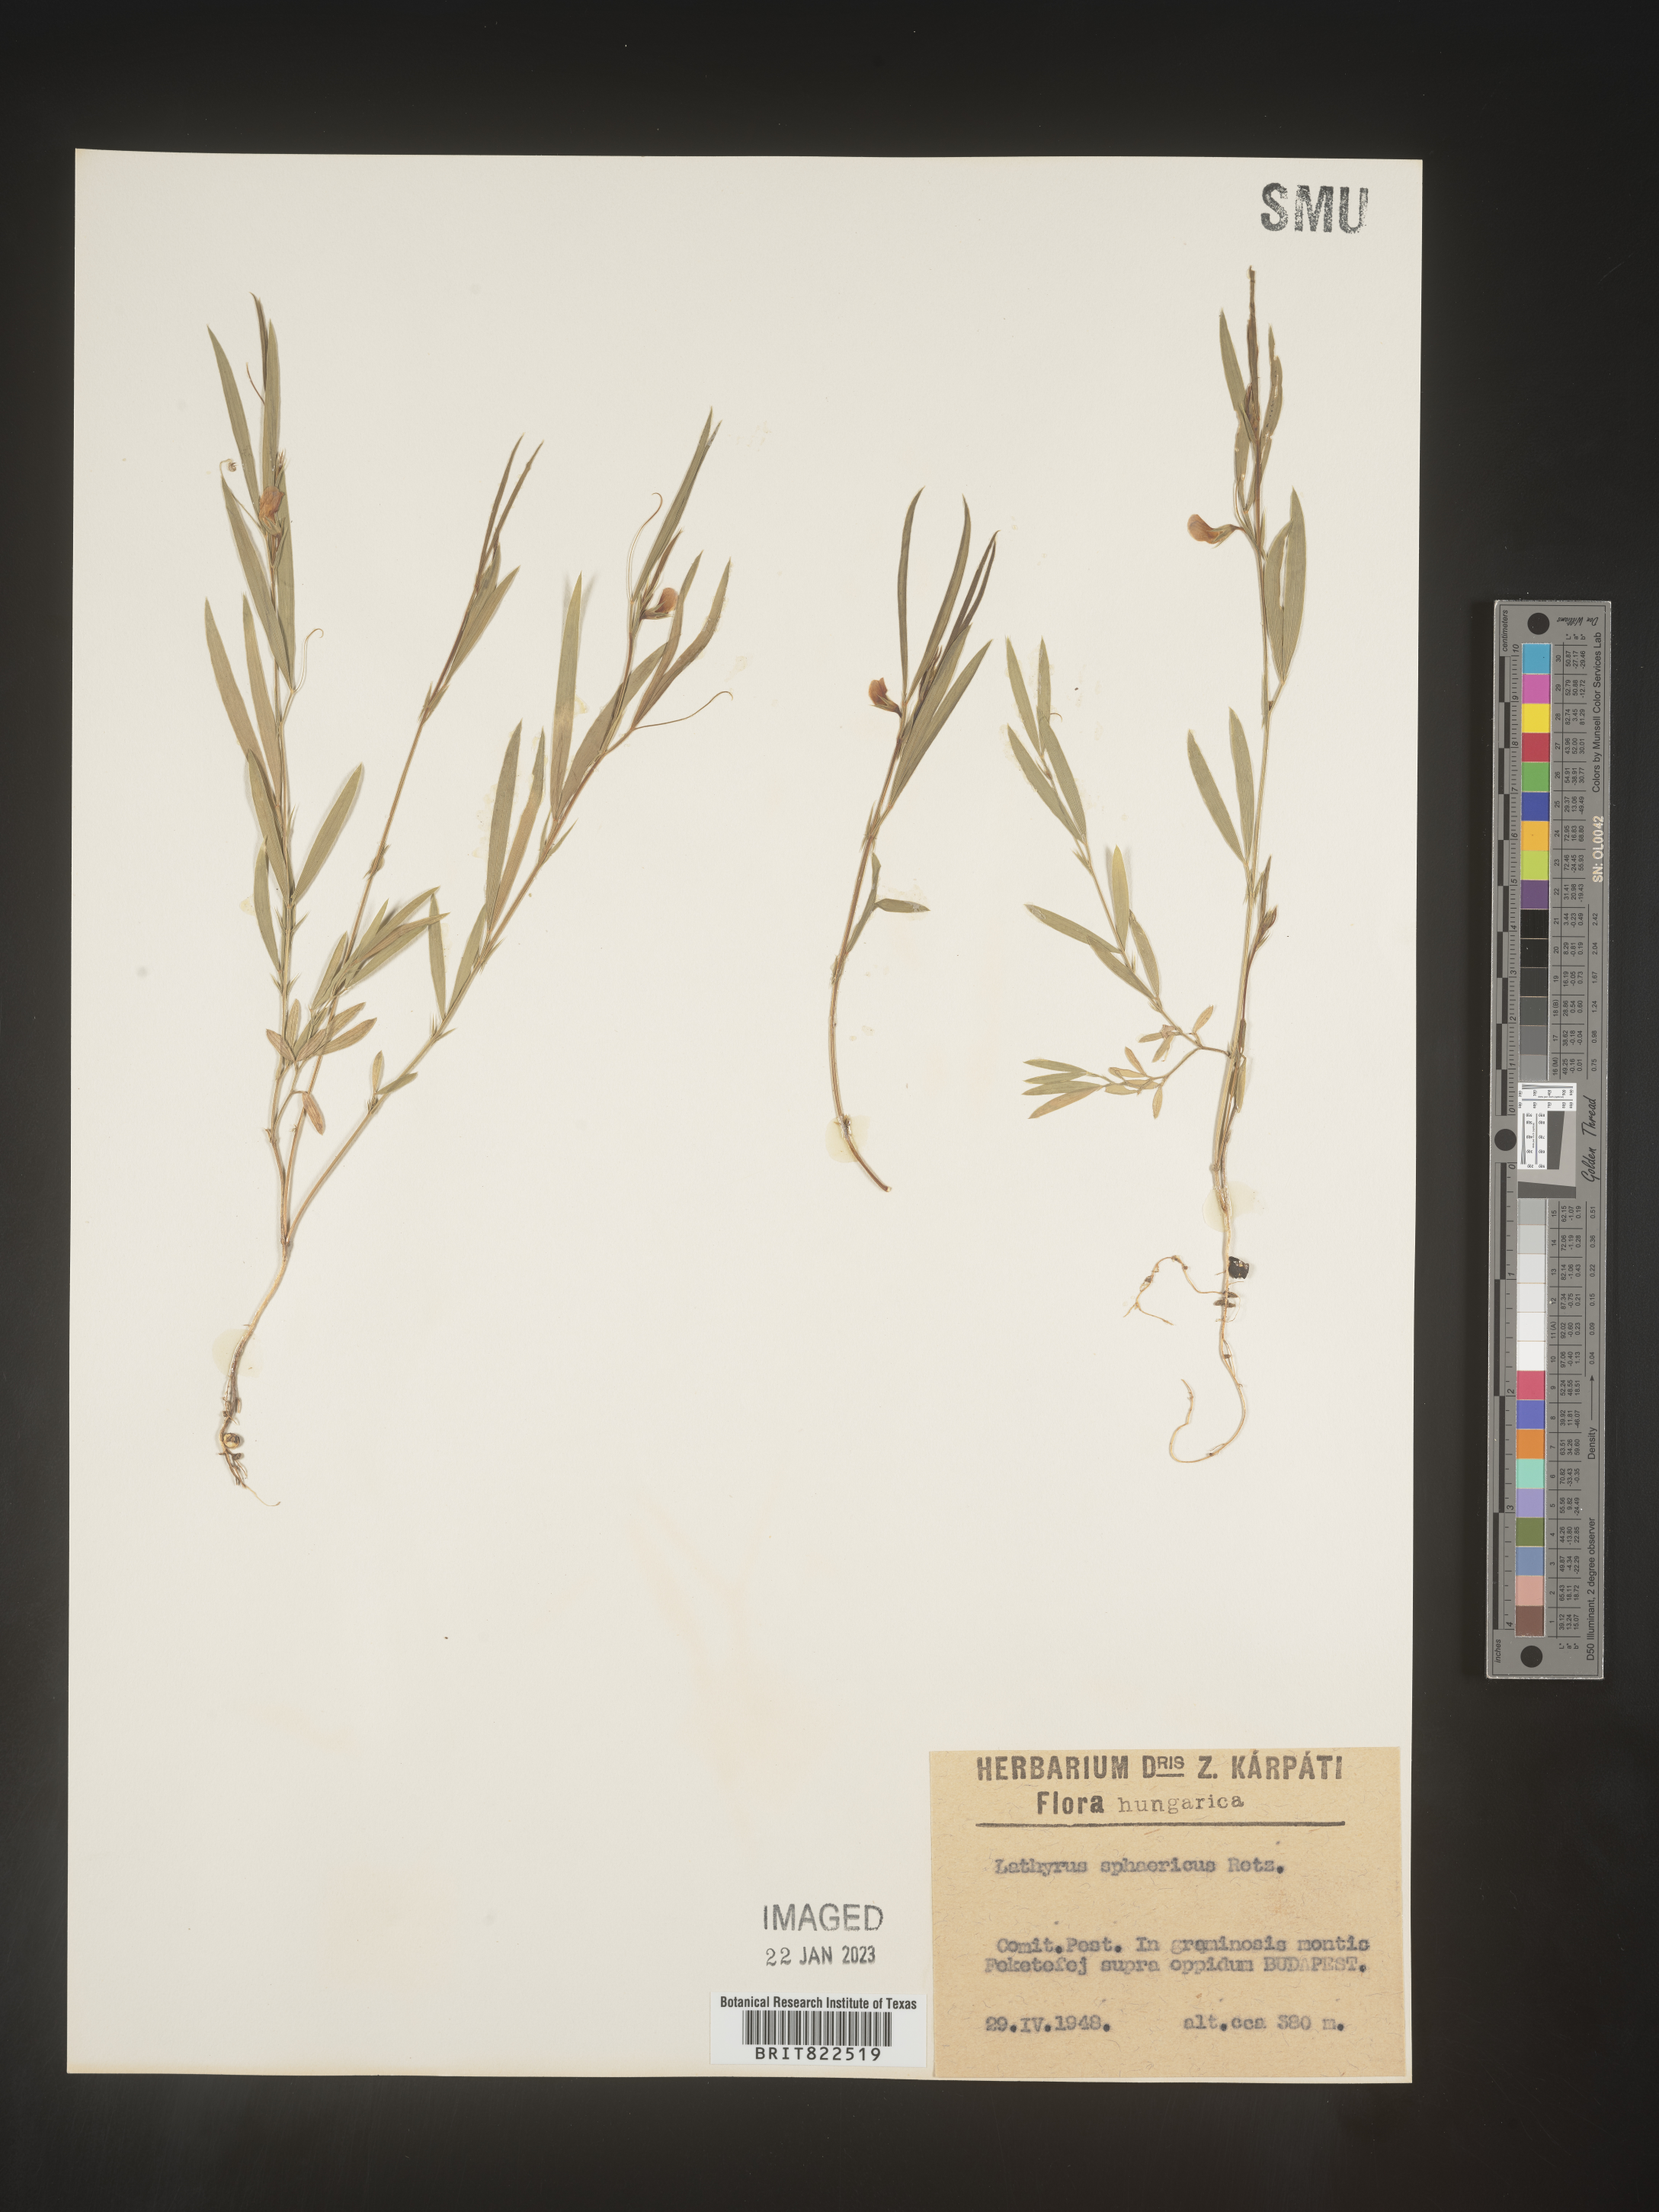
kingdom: Plantae
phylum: Tracheophyta
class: Magnoliopsida
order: Fabales
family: Fabaceae
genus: Lathyrus
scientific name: Lathyrus
